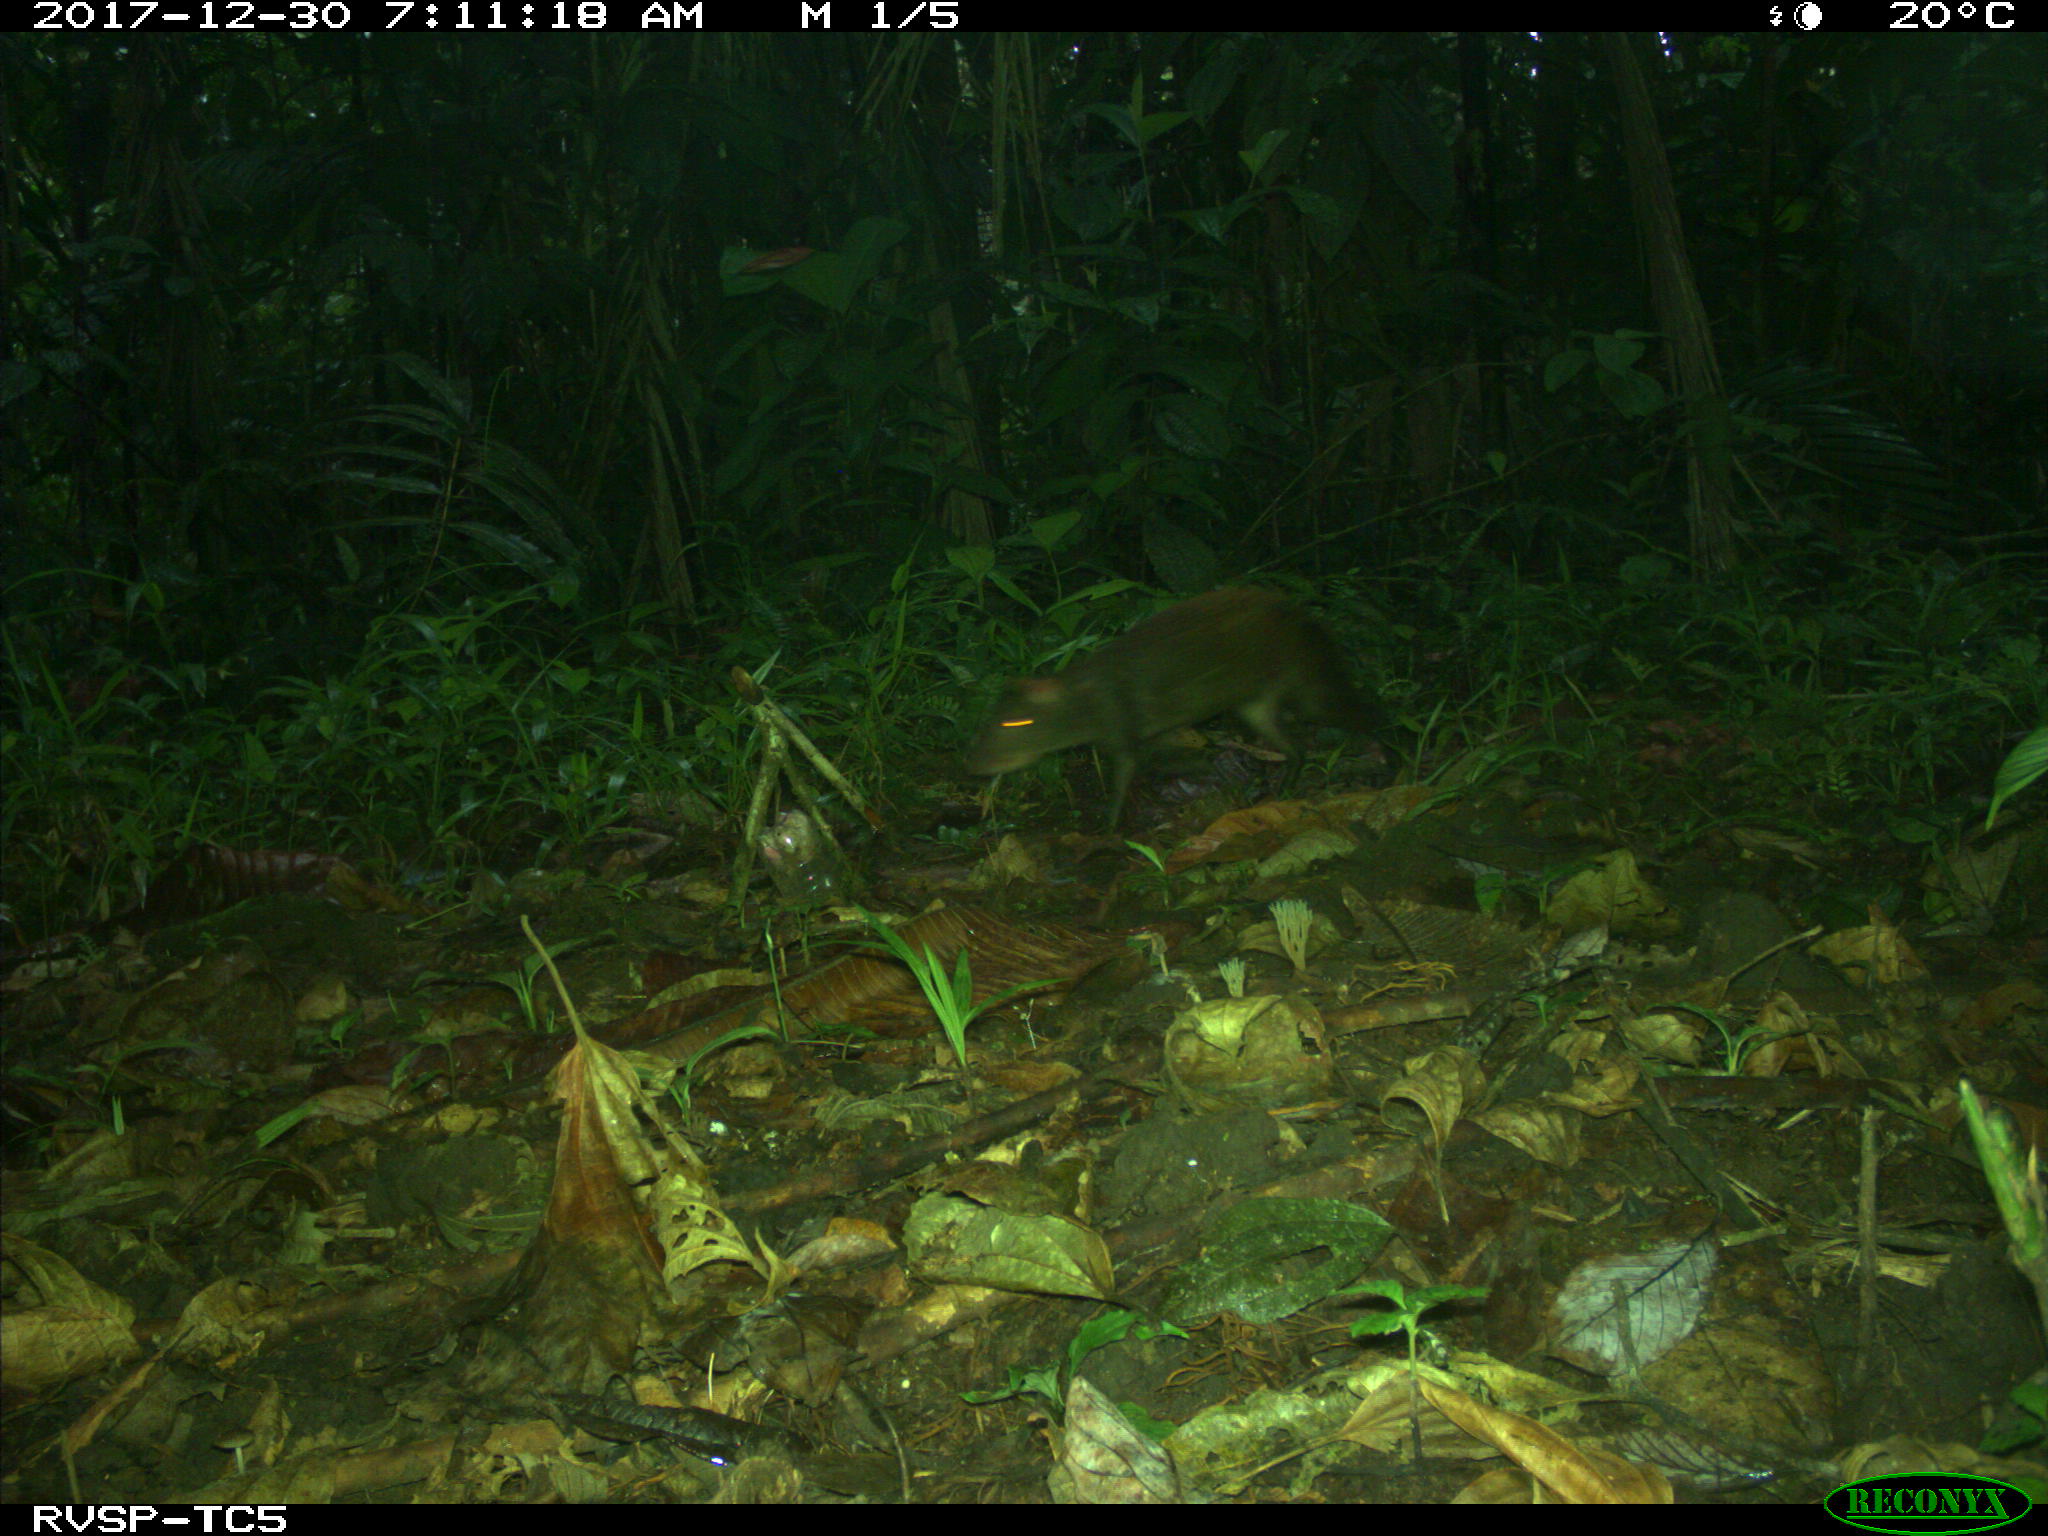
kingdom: Animalia
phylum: Chordata
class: Mammalia
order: Rodentia
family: Dasyproctidae
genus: Dasyprocta
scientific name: Dasyprocta punctata
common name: Central american agouti
